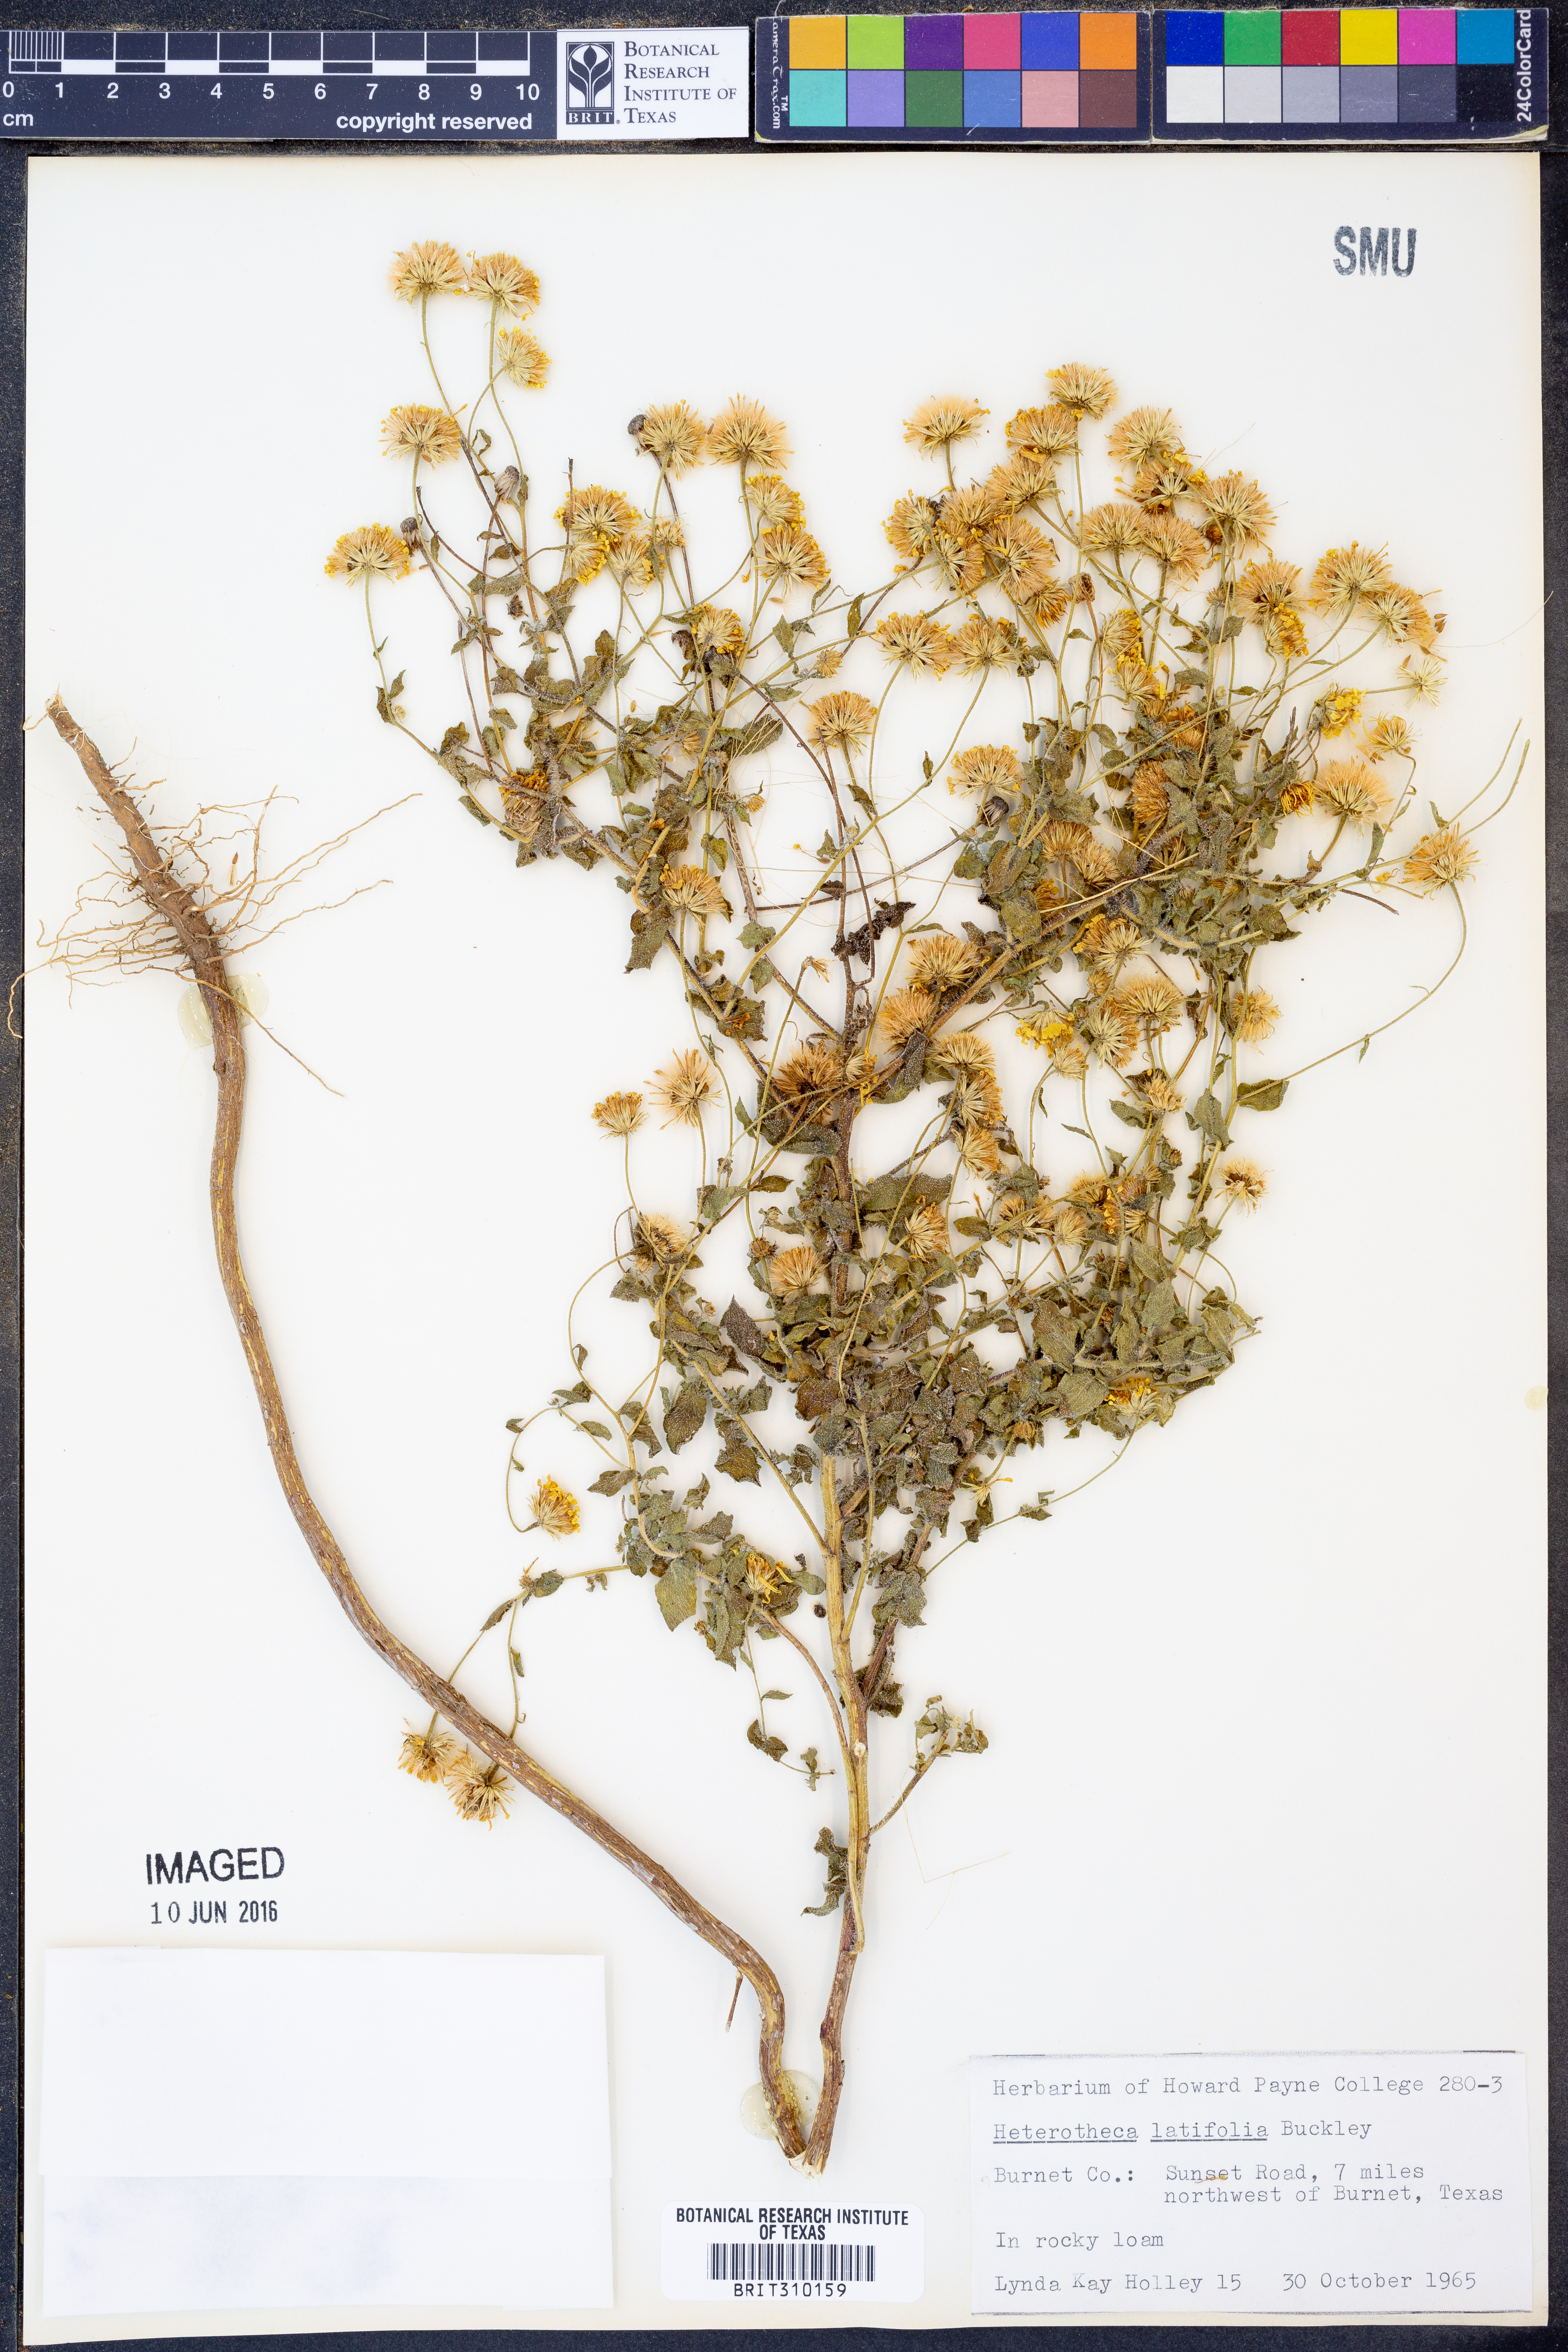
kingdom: Plantae
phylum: Tracheophyta
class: Magnoliopsida
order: Asterales
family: Asteraceae
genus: Heterotheca
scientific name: Heterotheca subaxillaris
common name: Camphorweed
